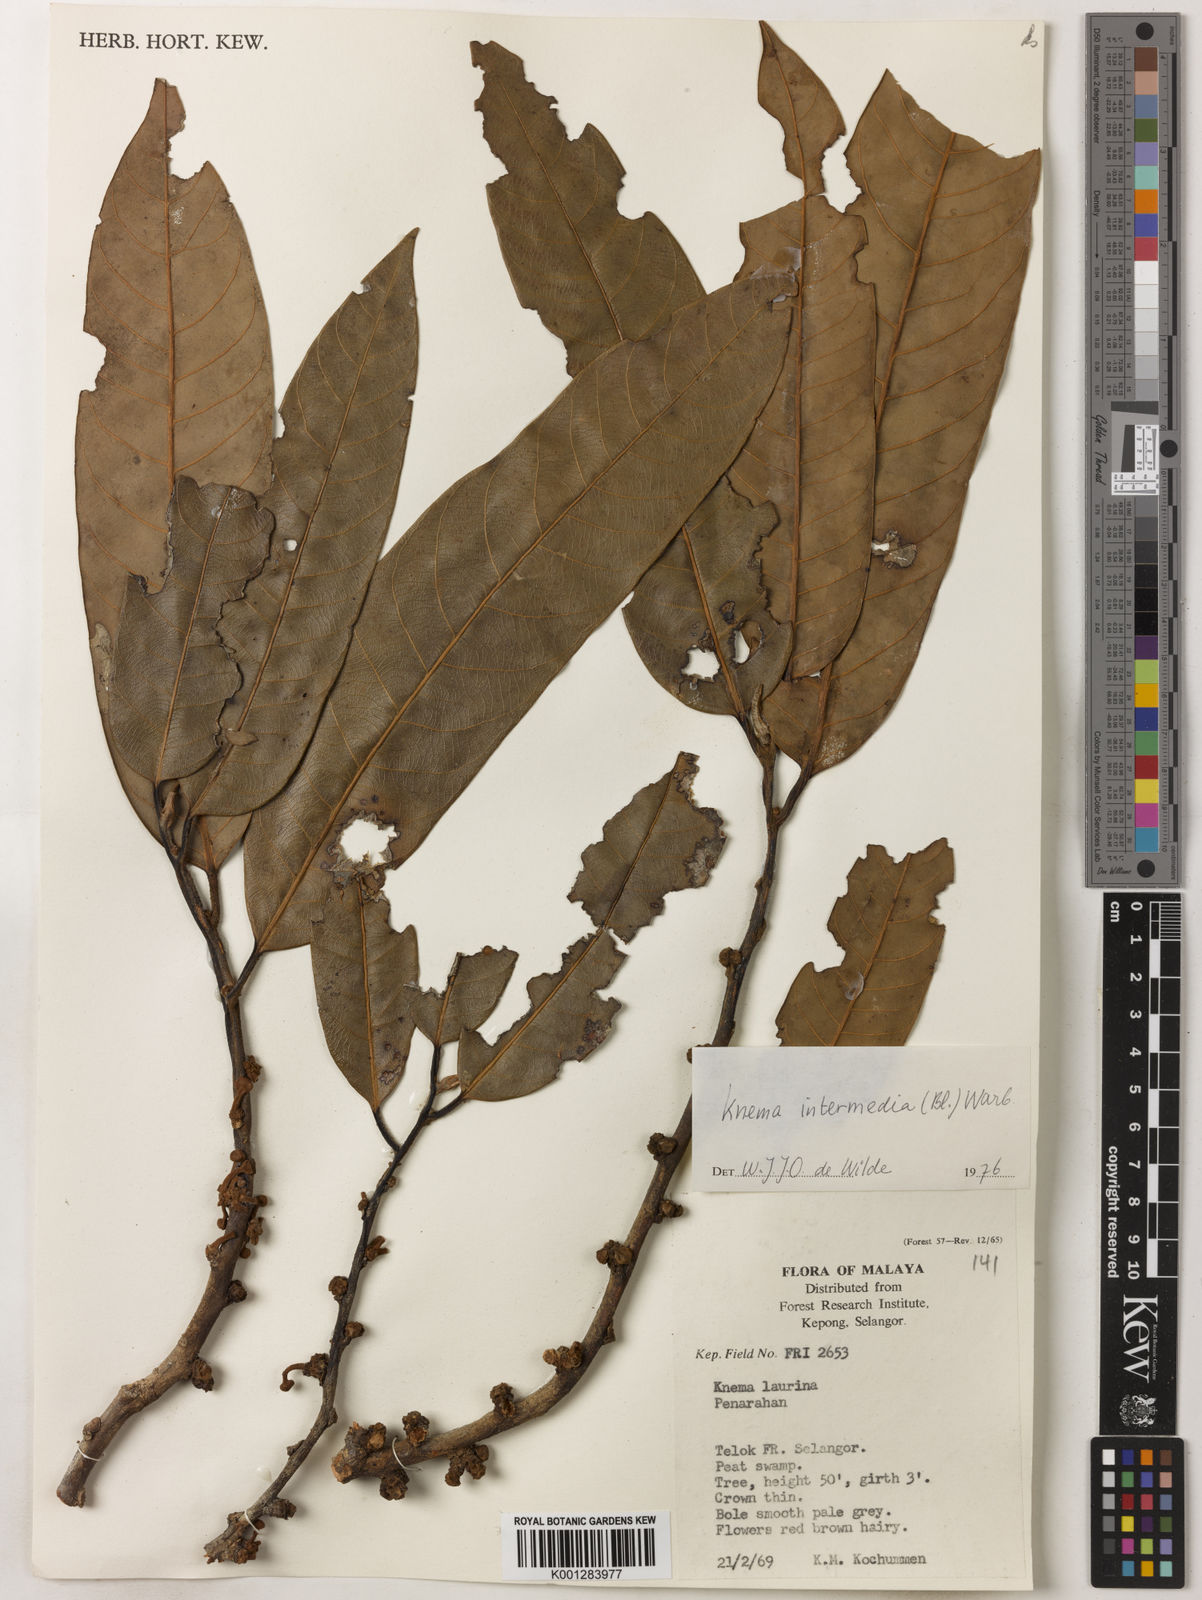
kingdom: Plantae
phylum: Tracheophyta
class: Magnoliopsida
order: Magnoliales
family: Myristicaceae
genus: Knema
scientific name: Knema intermedia
